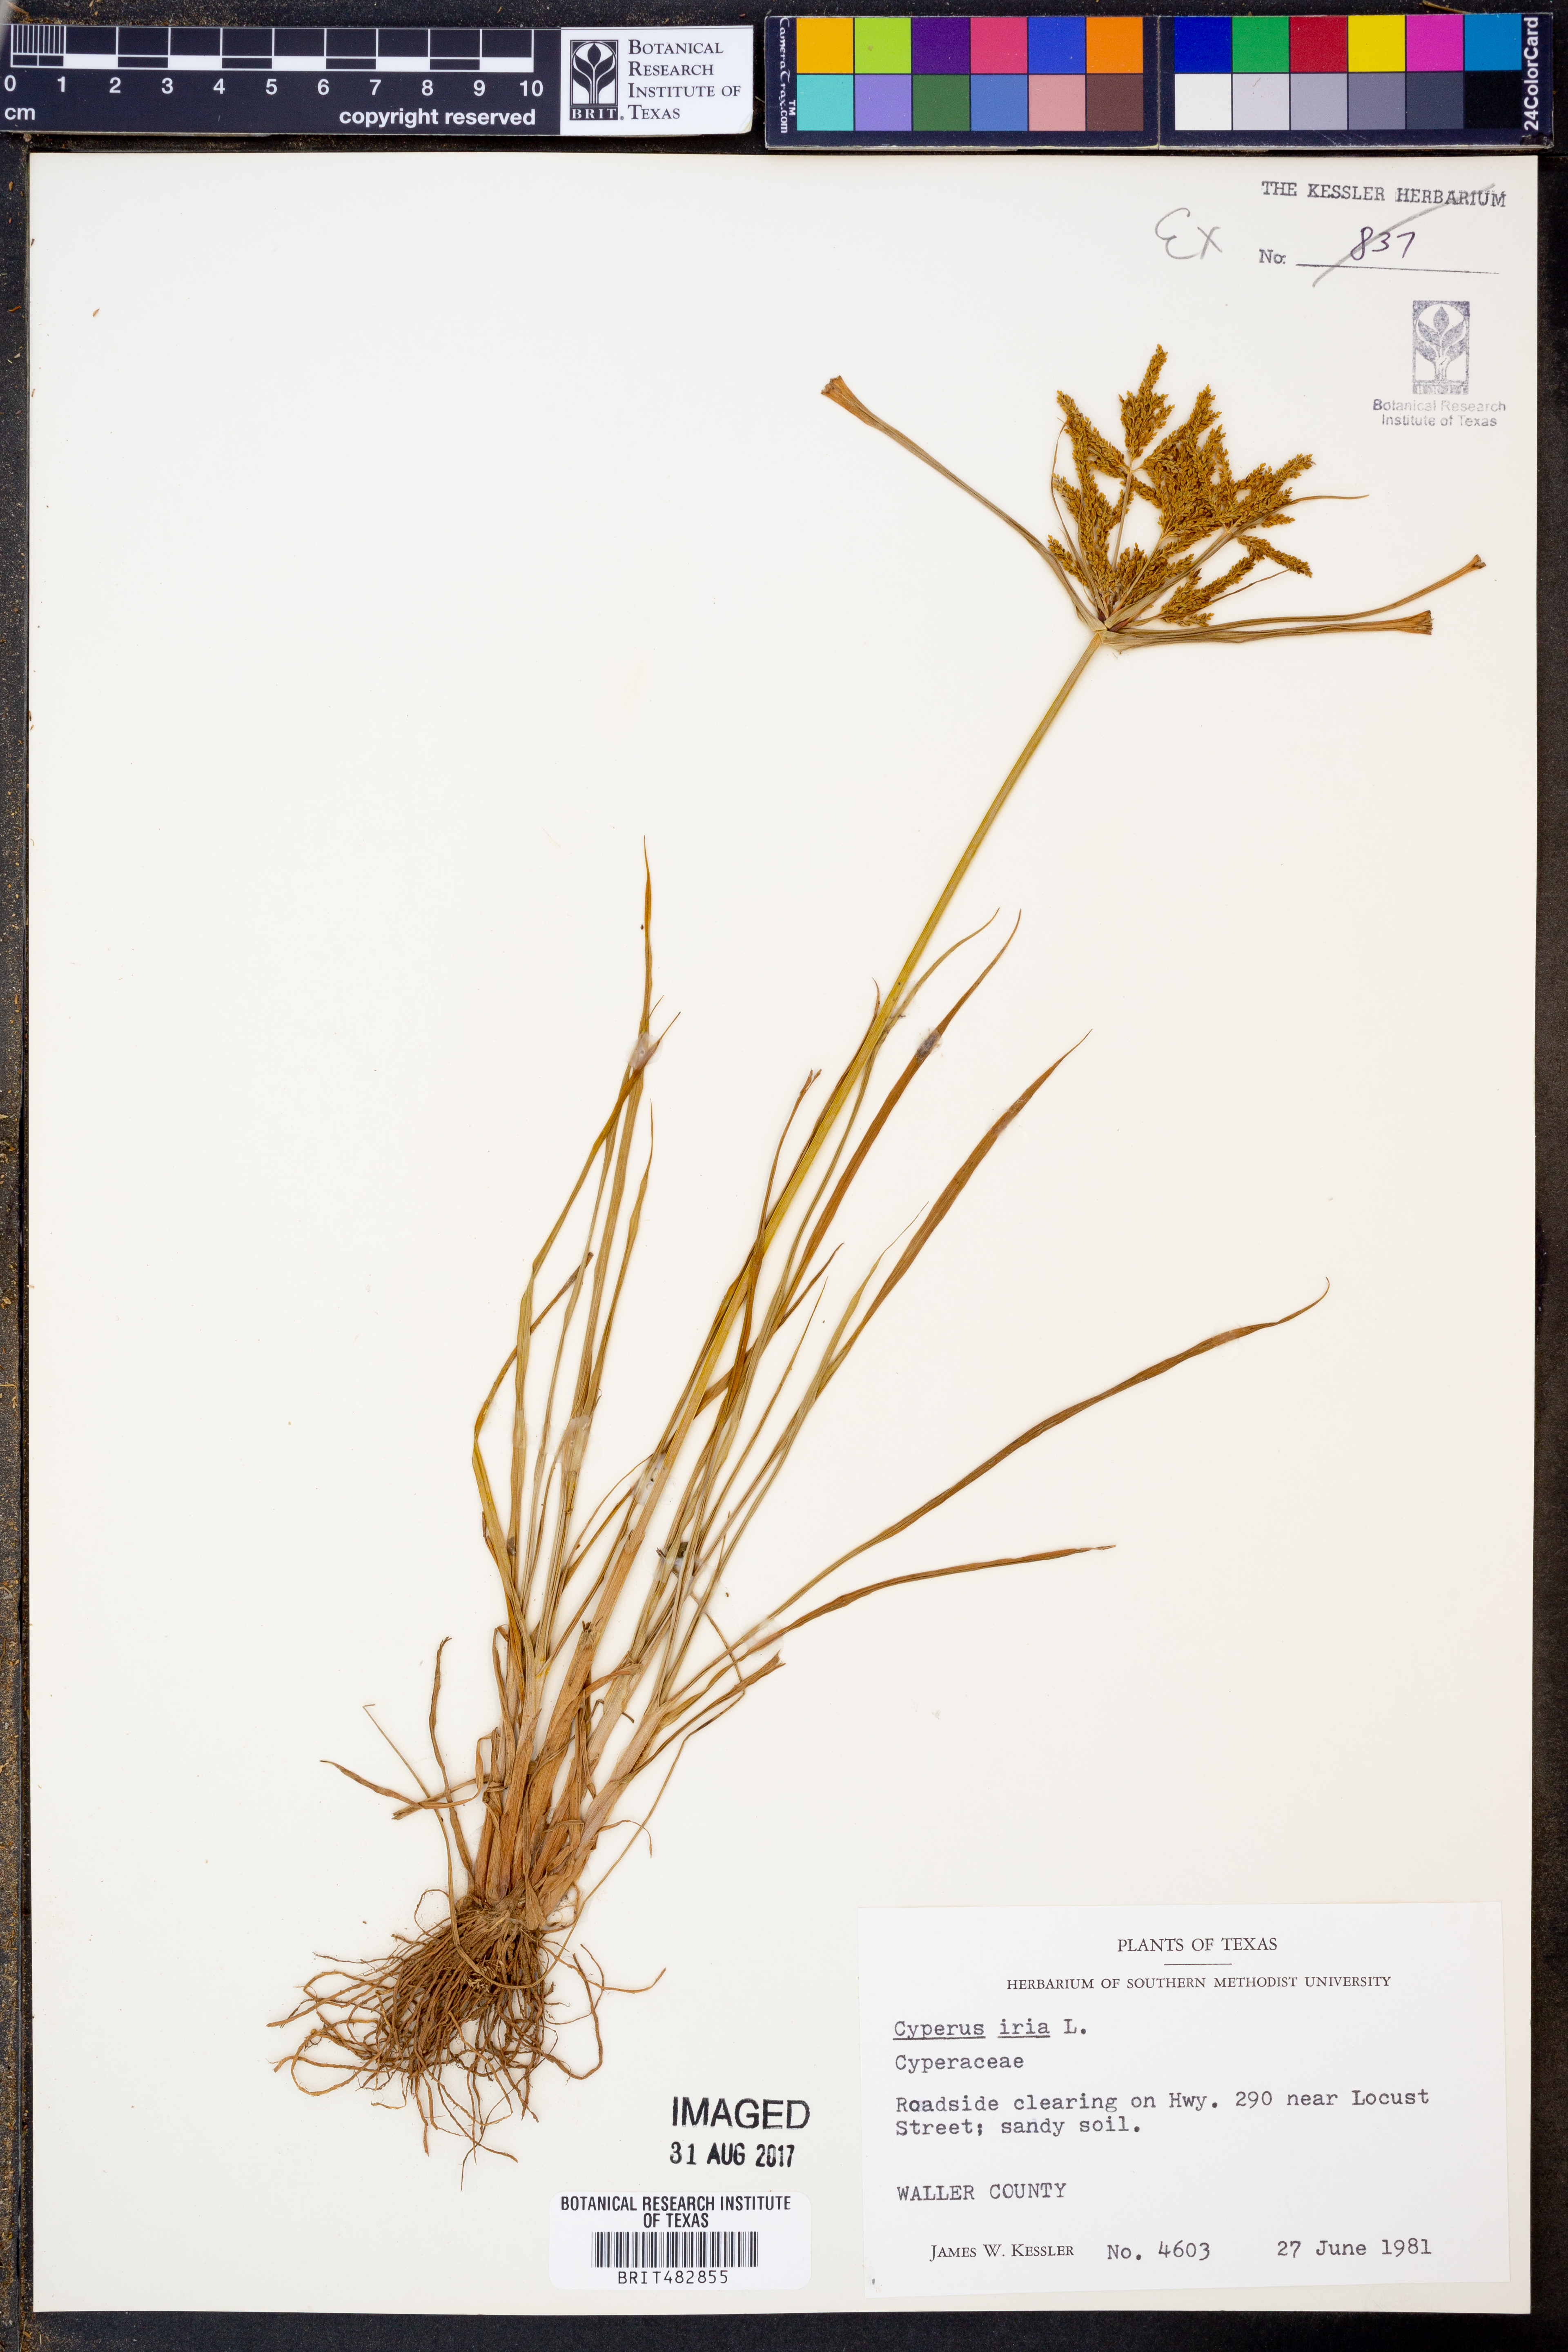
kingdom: Plantae
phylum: Tracheophyta
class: Liliopsida
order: Poales
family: Cyperaceae
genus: Cyperus
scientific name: Cyperus iria
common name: Ricefield flatsedge
